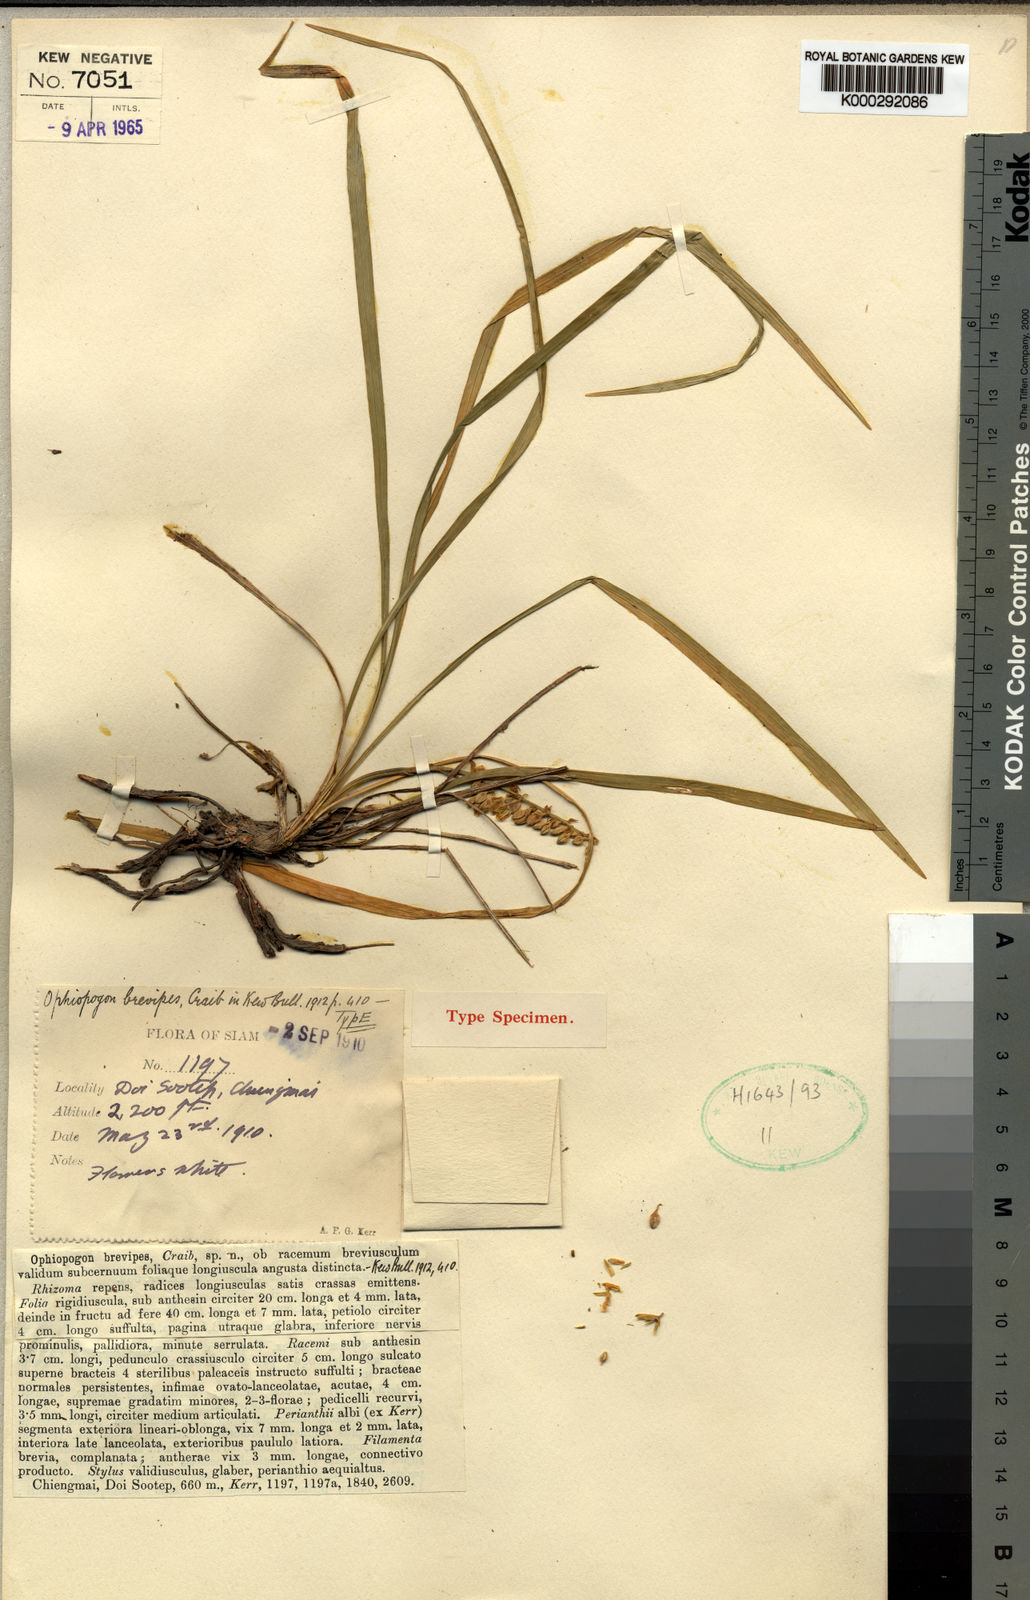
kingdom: Plantae
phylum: Tracheophyta
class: Liliopsida
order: Asparagales
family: Asparagaceae
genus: Ophiopogon
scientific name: Ophiopogon brevipes
